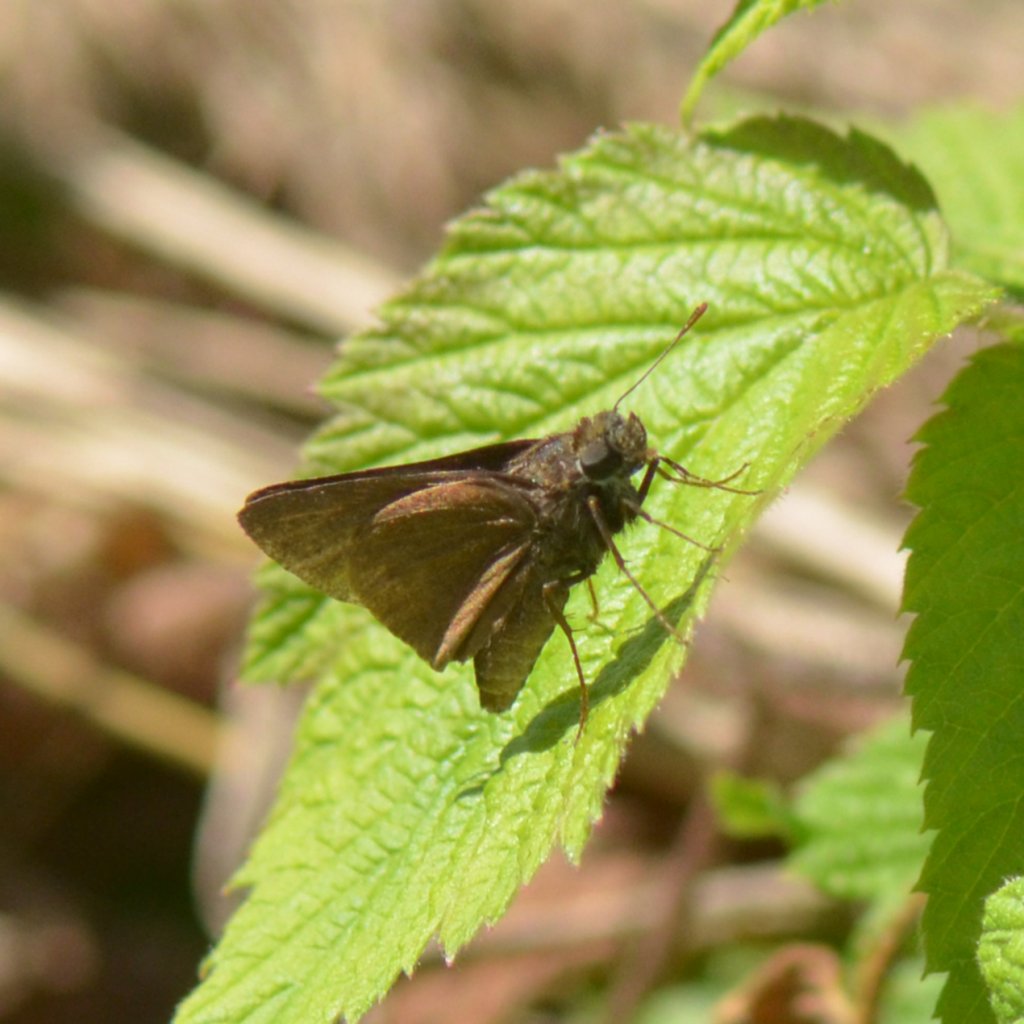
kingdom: Animalia
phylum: Arthropoda
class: Insecta
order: Lepidoptera
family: Hesperiidae
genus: Euphyes
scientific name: Euphyes vestris
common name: Dun Skipper
